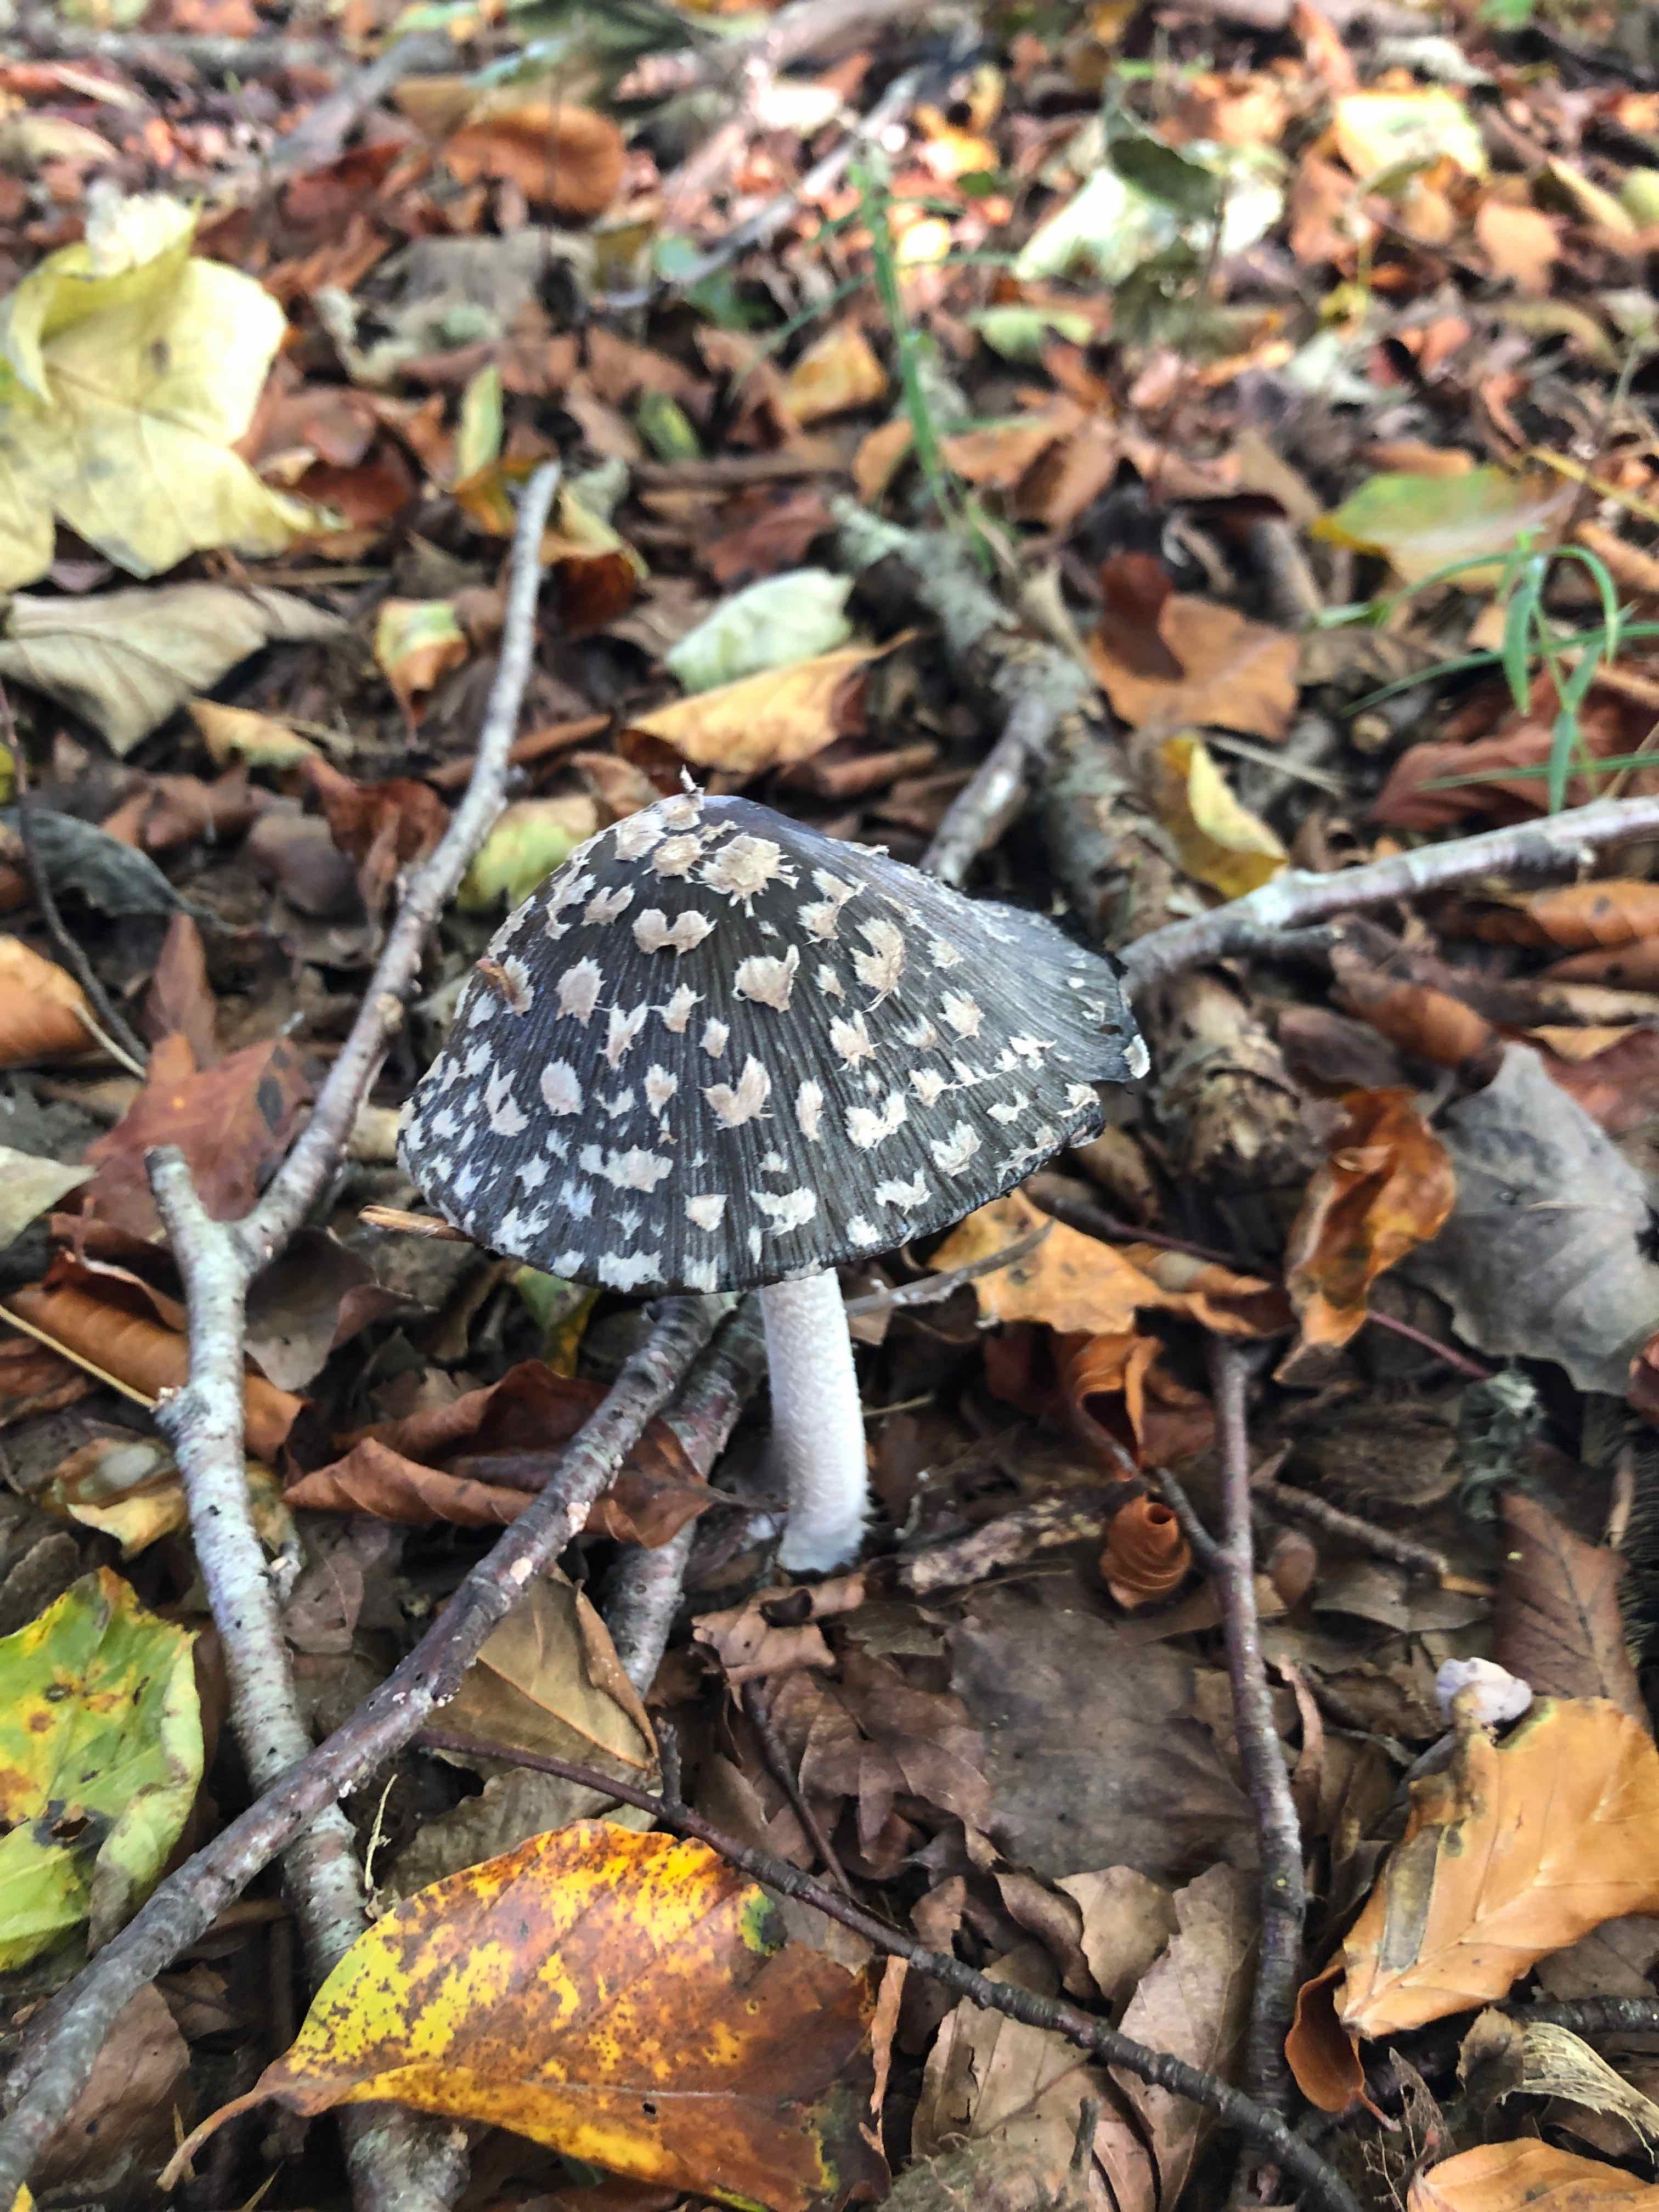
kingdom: Fungi
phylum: Basidiomycota
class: Agaricomycetes
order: Agaricales
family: Psathyrellaceae
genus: Coprinopsis
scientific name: Coprinopsis picacea
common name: skade-blækhat
